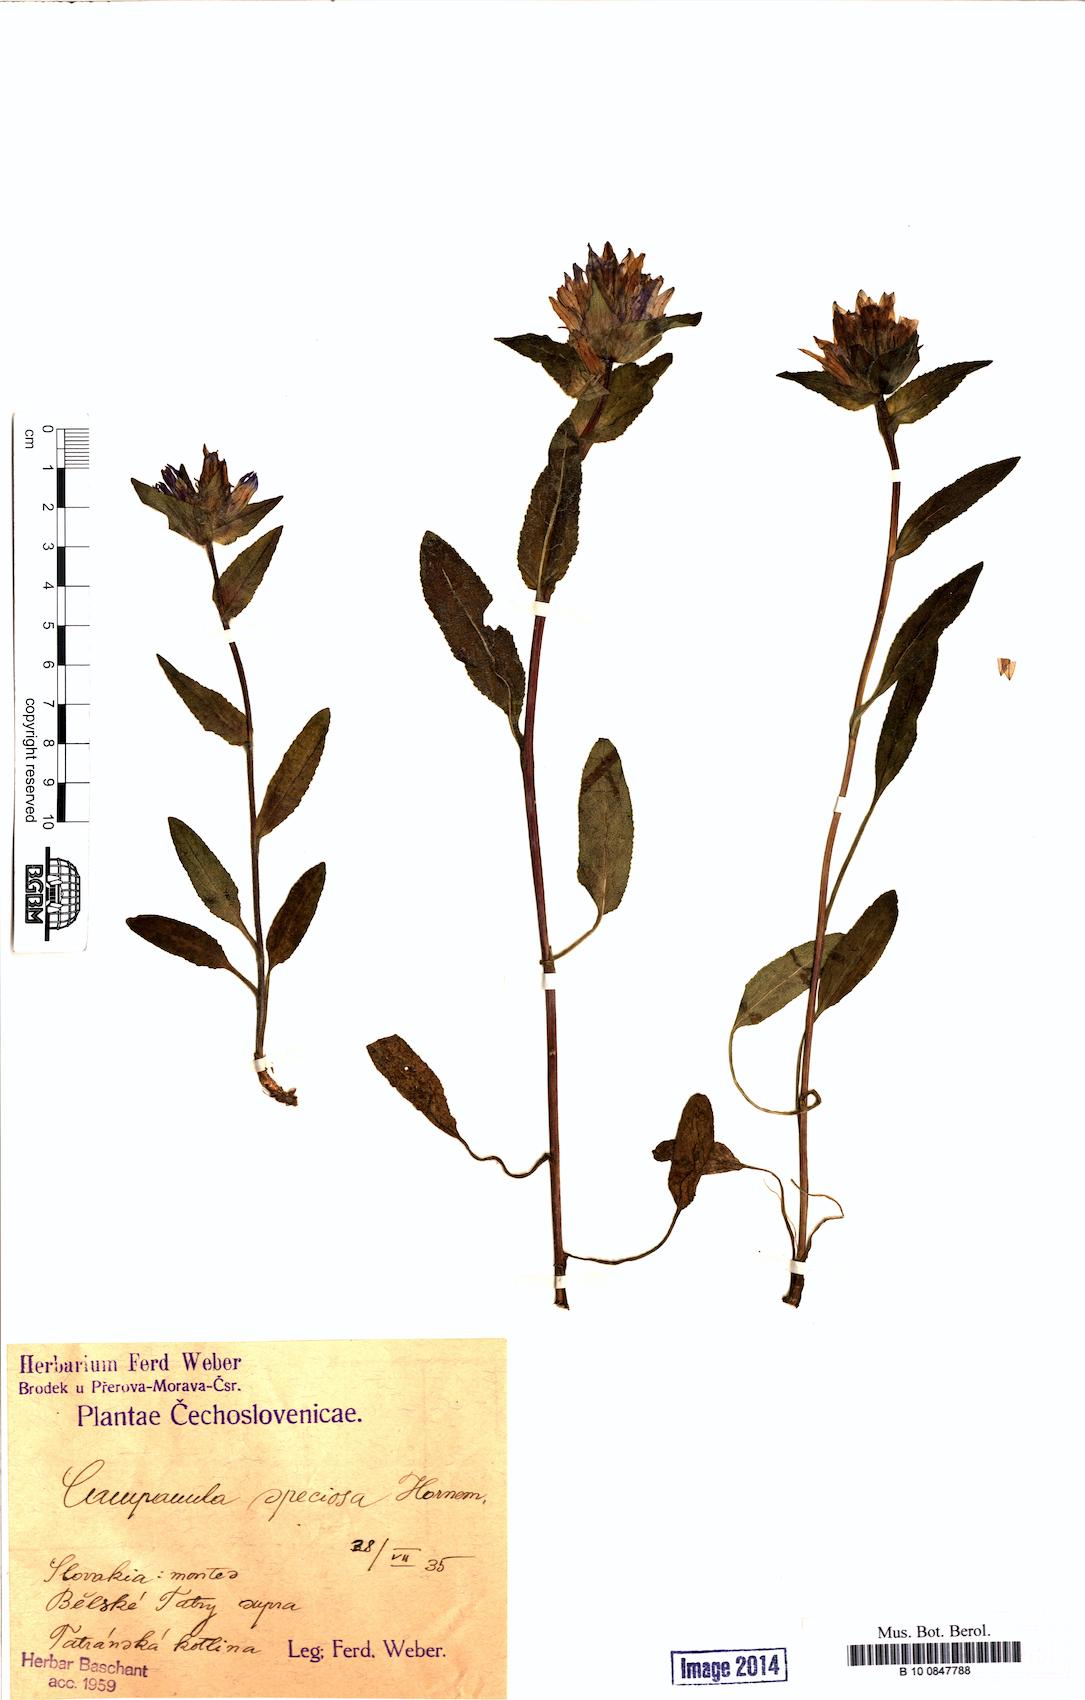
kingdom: Plantae
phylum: Tracheophyta
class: Magnoliopsida
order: Asterales
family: Campanulaceae
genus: Campanula
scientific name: Campanula glomerata
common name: Clustered bellflower
